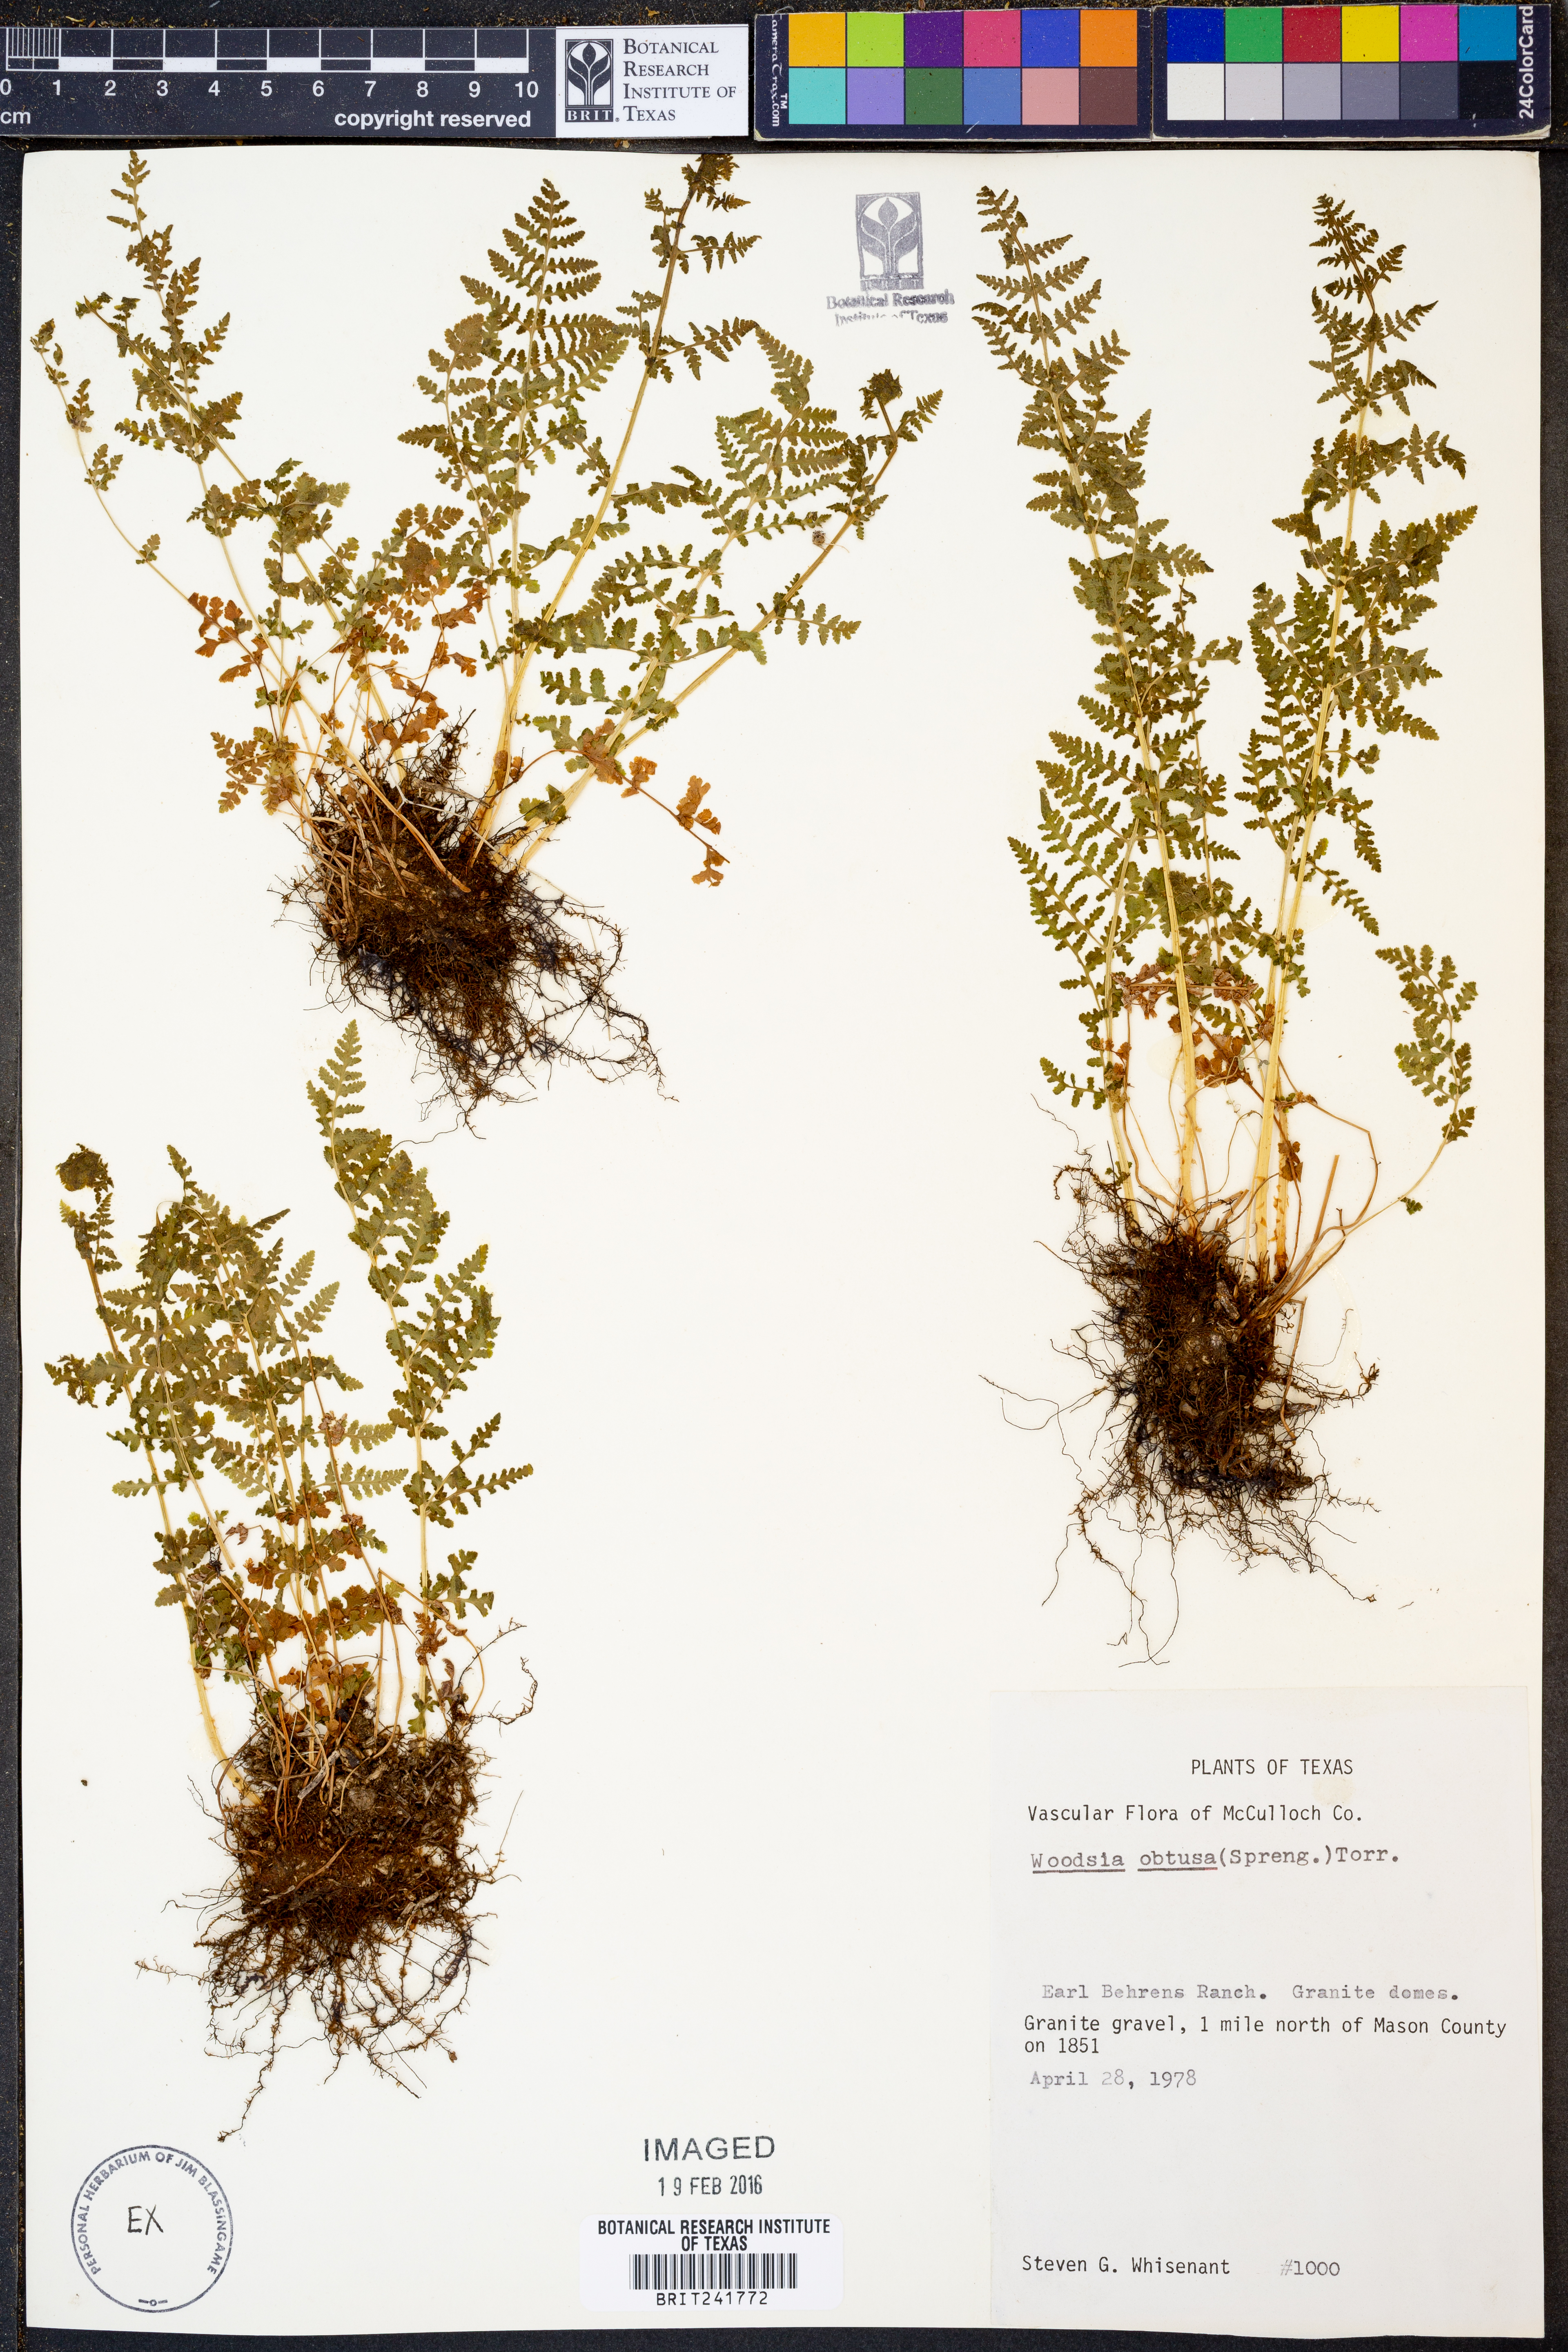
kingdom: Plantae
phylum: Tracheophyta
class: Polypodiopsida
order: Polypodiales
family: Woodsiaceae
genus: Physematium
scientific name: Physematium obtusum
